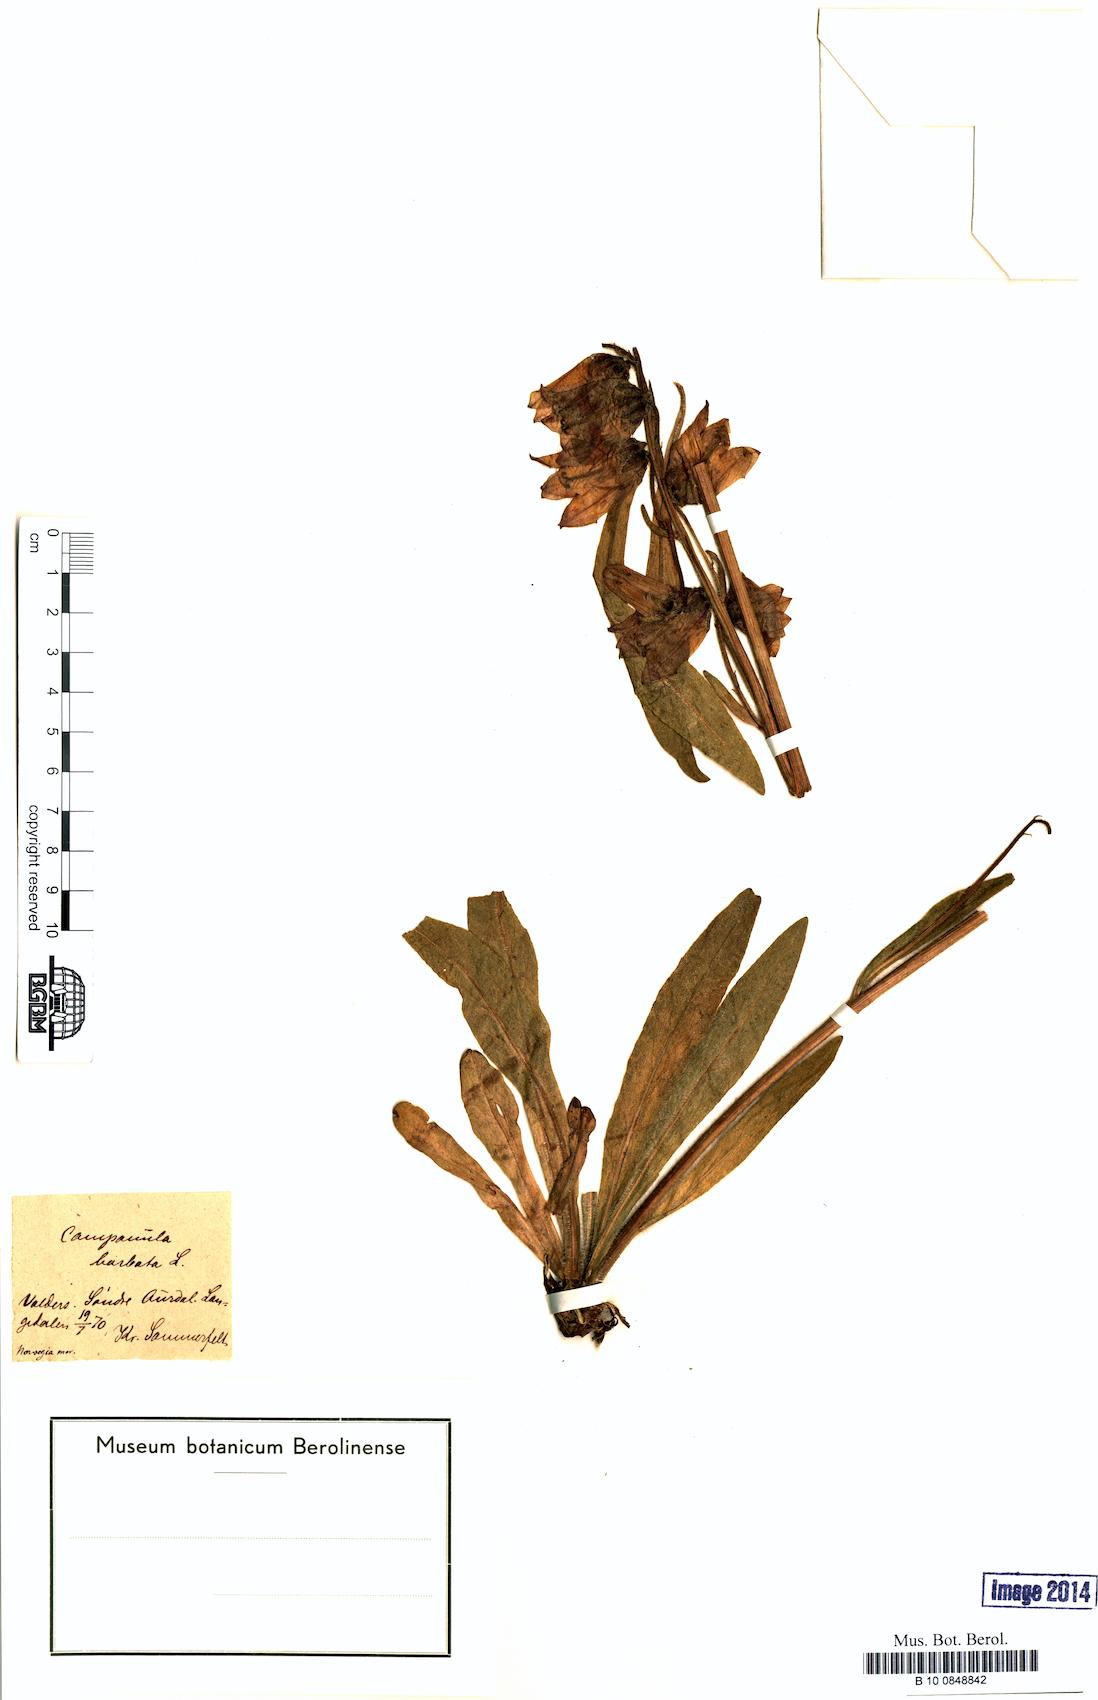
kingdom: Plantae
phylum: Tracheophyta
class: Magnoliopsida
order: Asterales
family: Campanulaceae
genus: Campanula
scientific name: Campanula barbata
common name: Bearded bellflower
